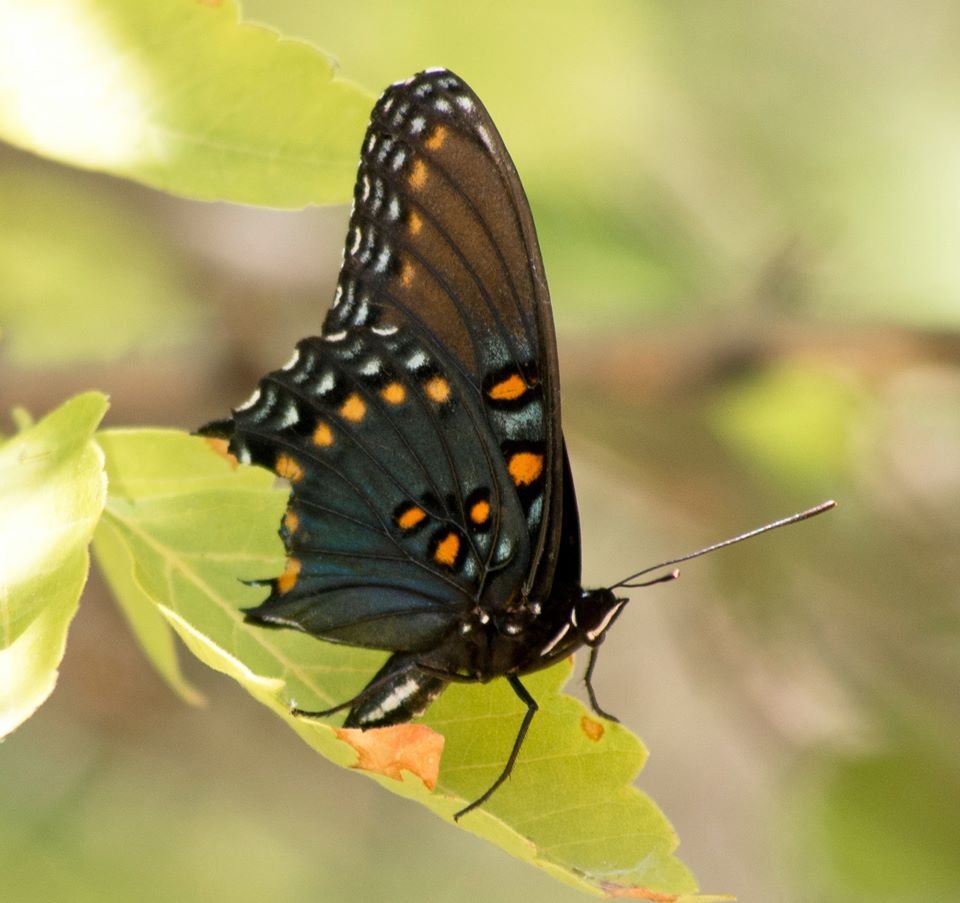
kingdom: Animalia
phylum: Arthropoda
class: Insecta
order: Lepidoptera
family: Nymphalidae
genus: Limenitis
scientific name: Limenitis astyanax
